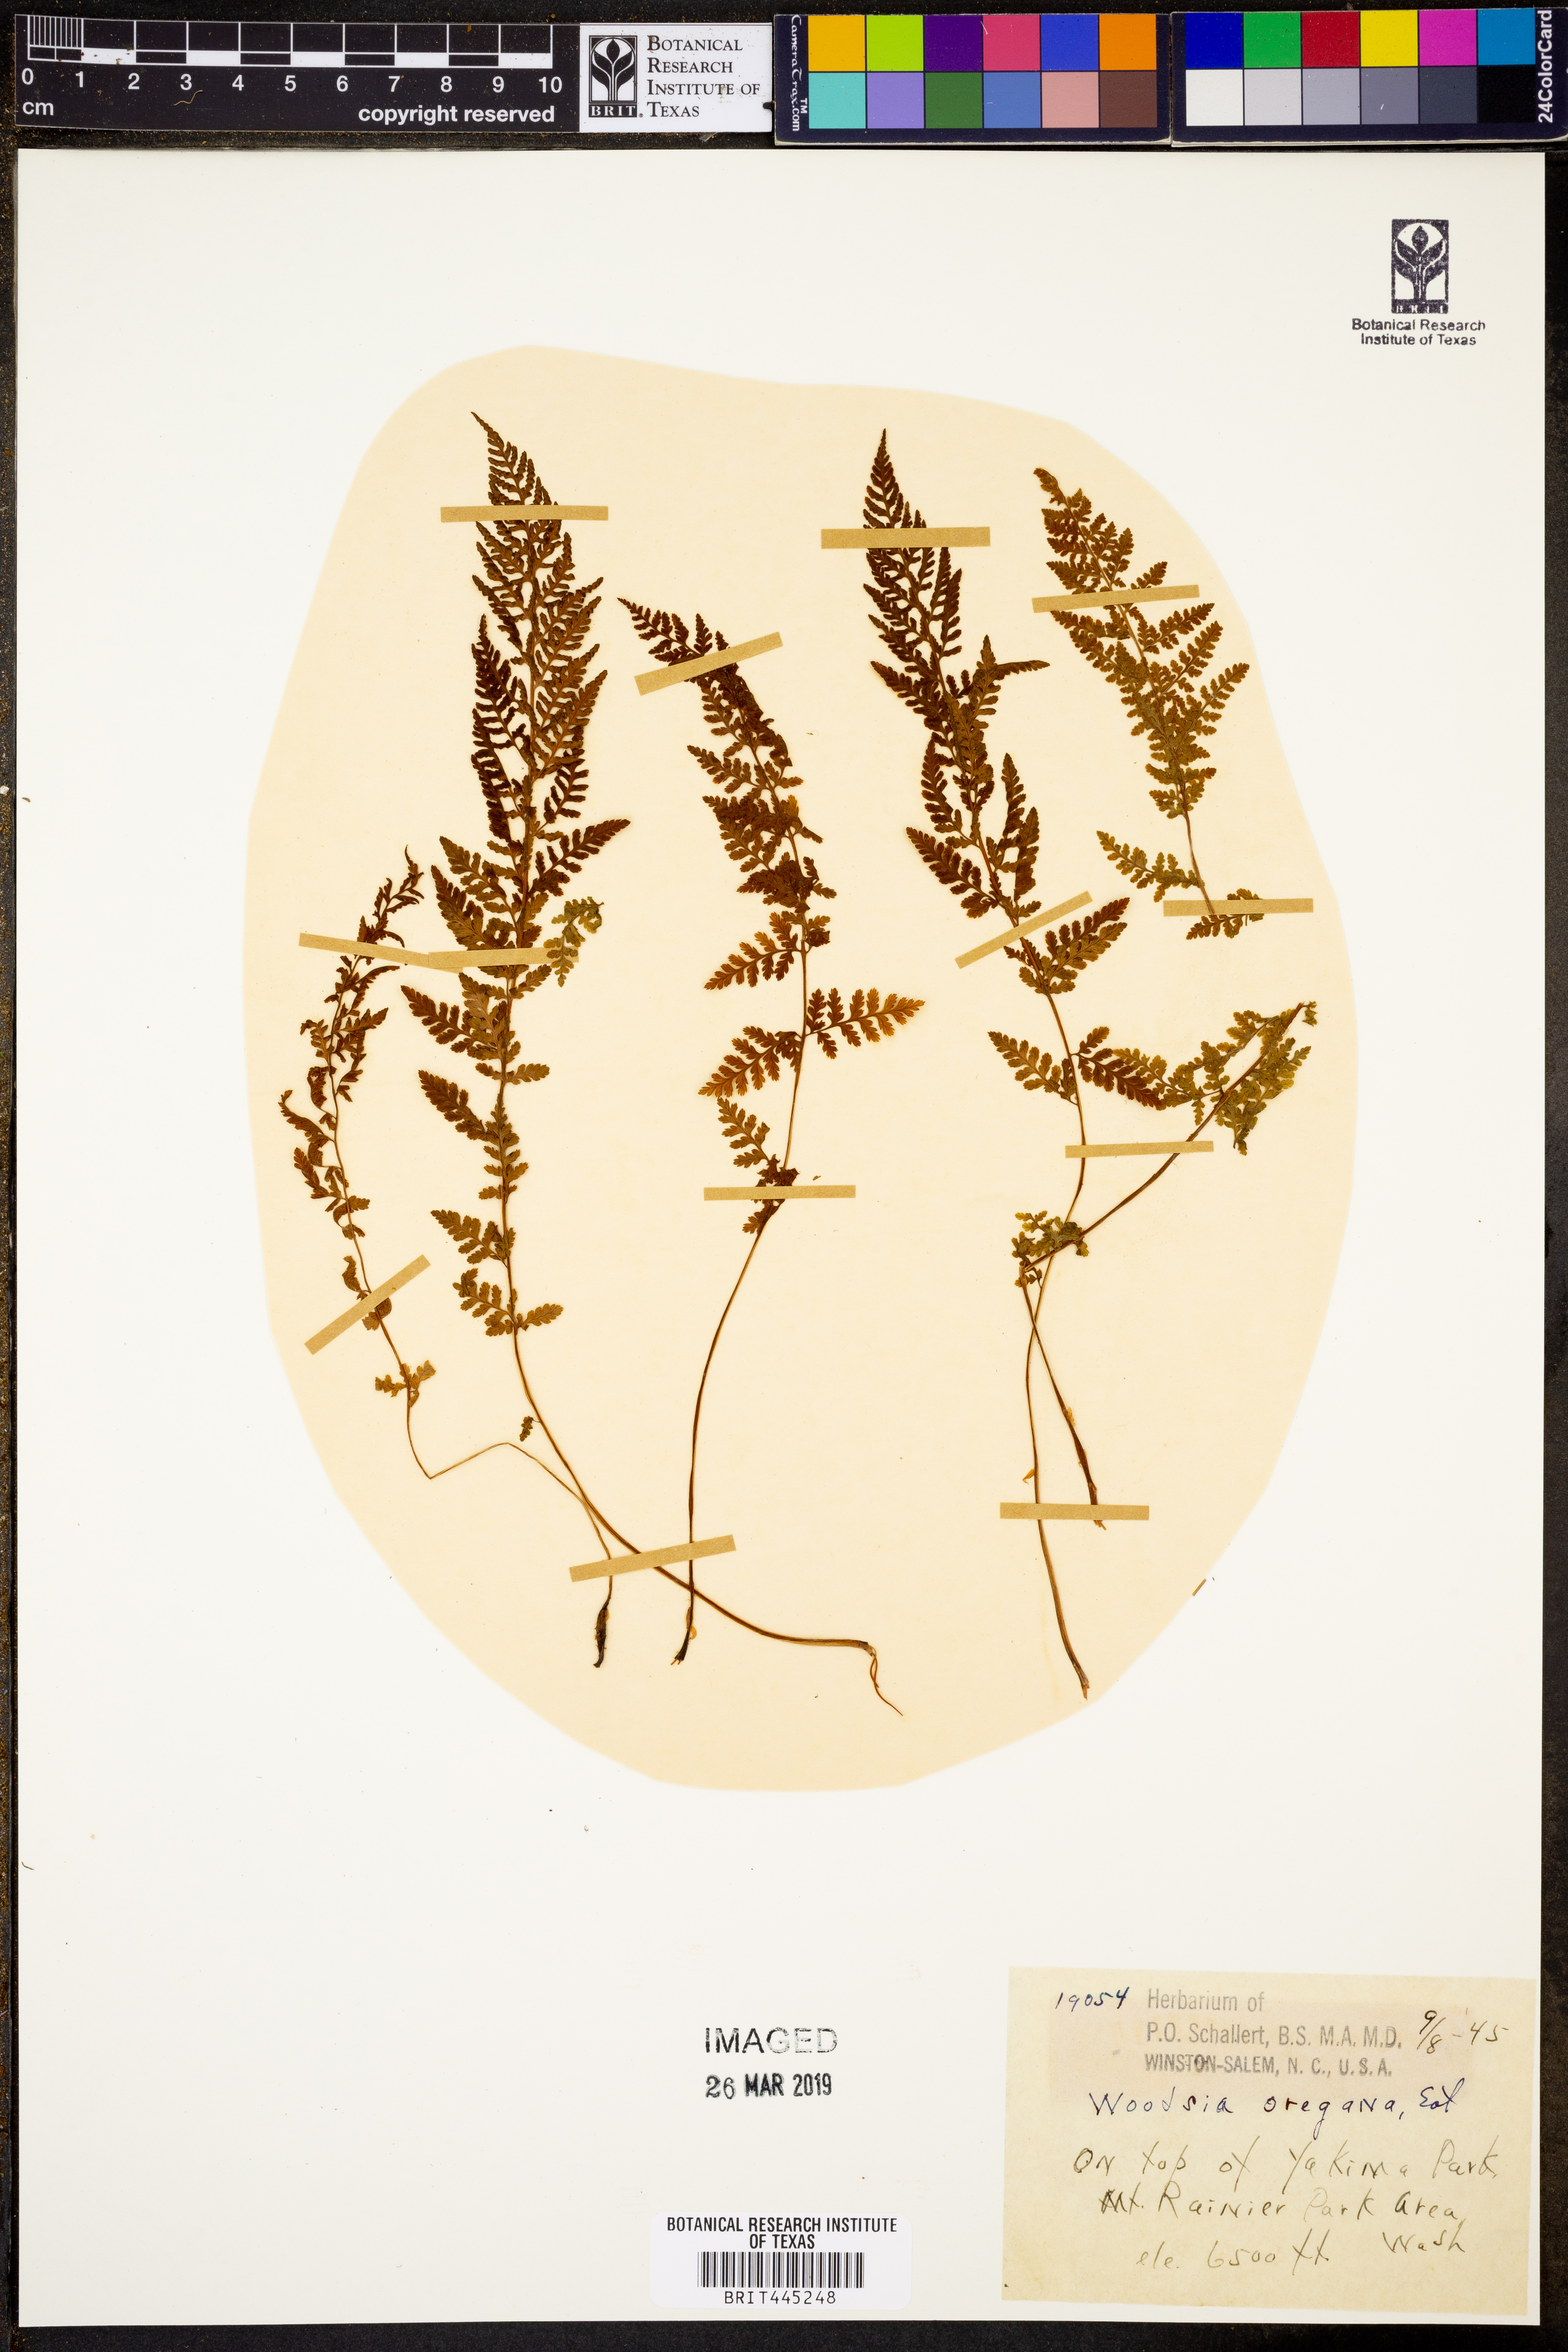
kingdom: Plantae
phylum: Tracheophyta
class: Polypodiopsida
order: Polypodiales
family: Woodsiaceae
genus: Physematium
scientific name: Physematium oreganum
